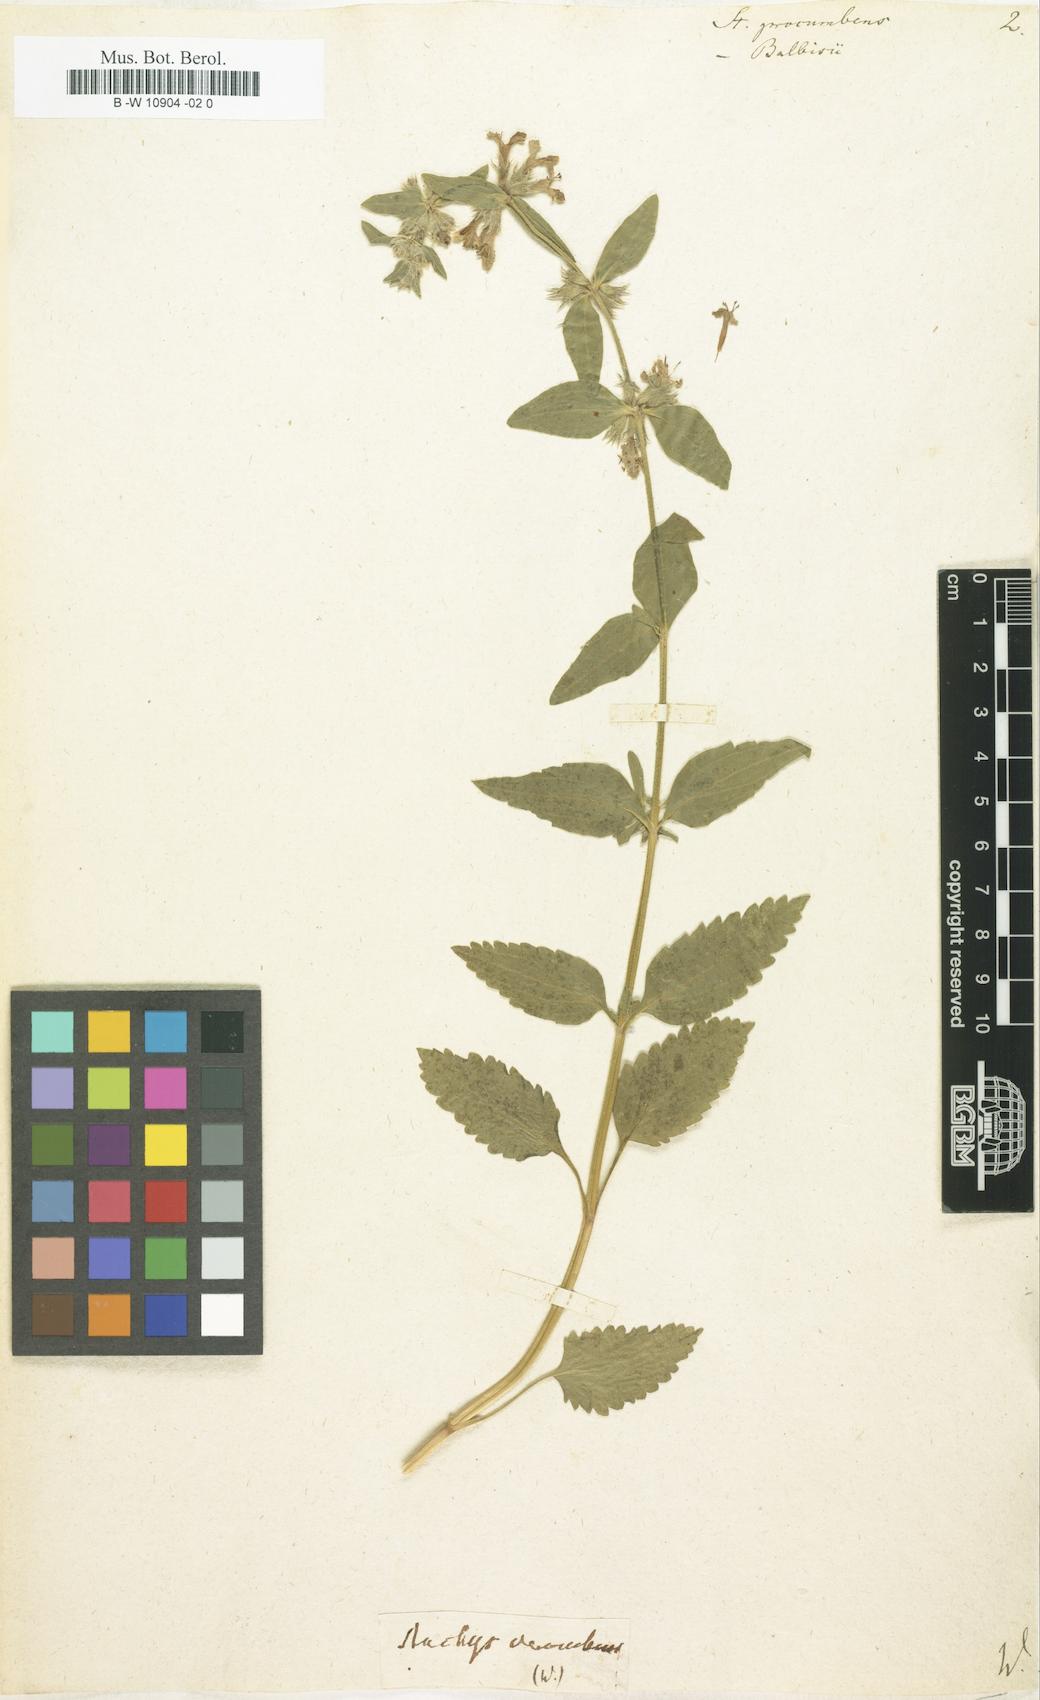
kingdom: Plantae
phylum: Tracheophyta
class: Magnoliopsida
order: Lamiales
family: Lamiaceae
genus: Stachys
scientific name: Stachys
